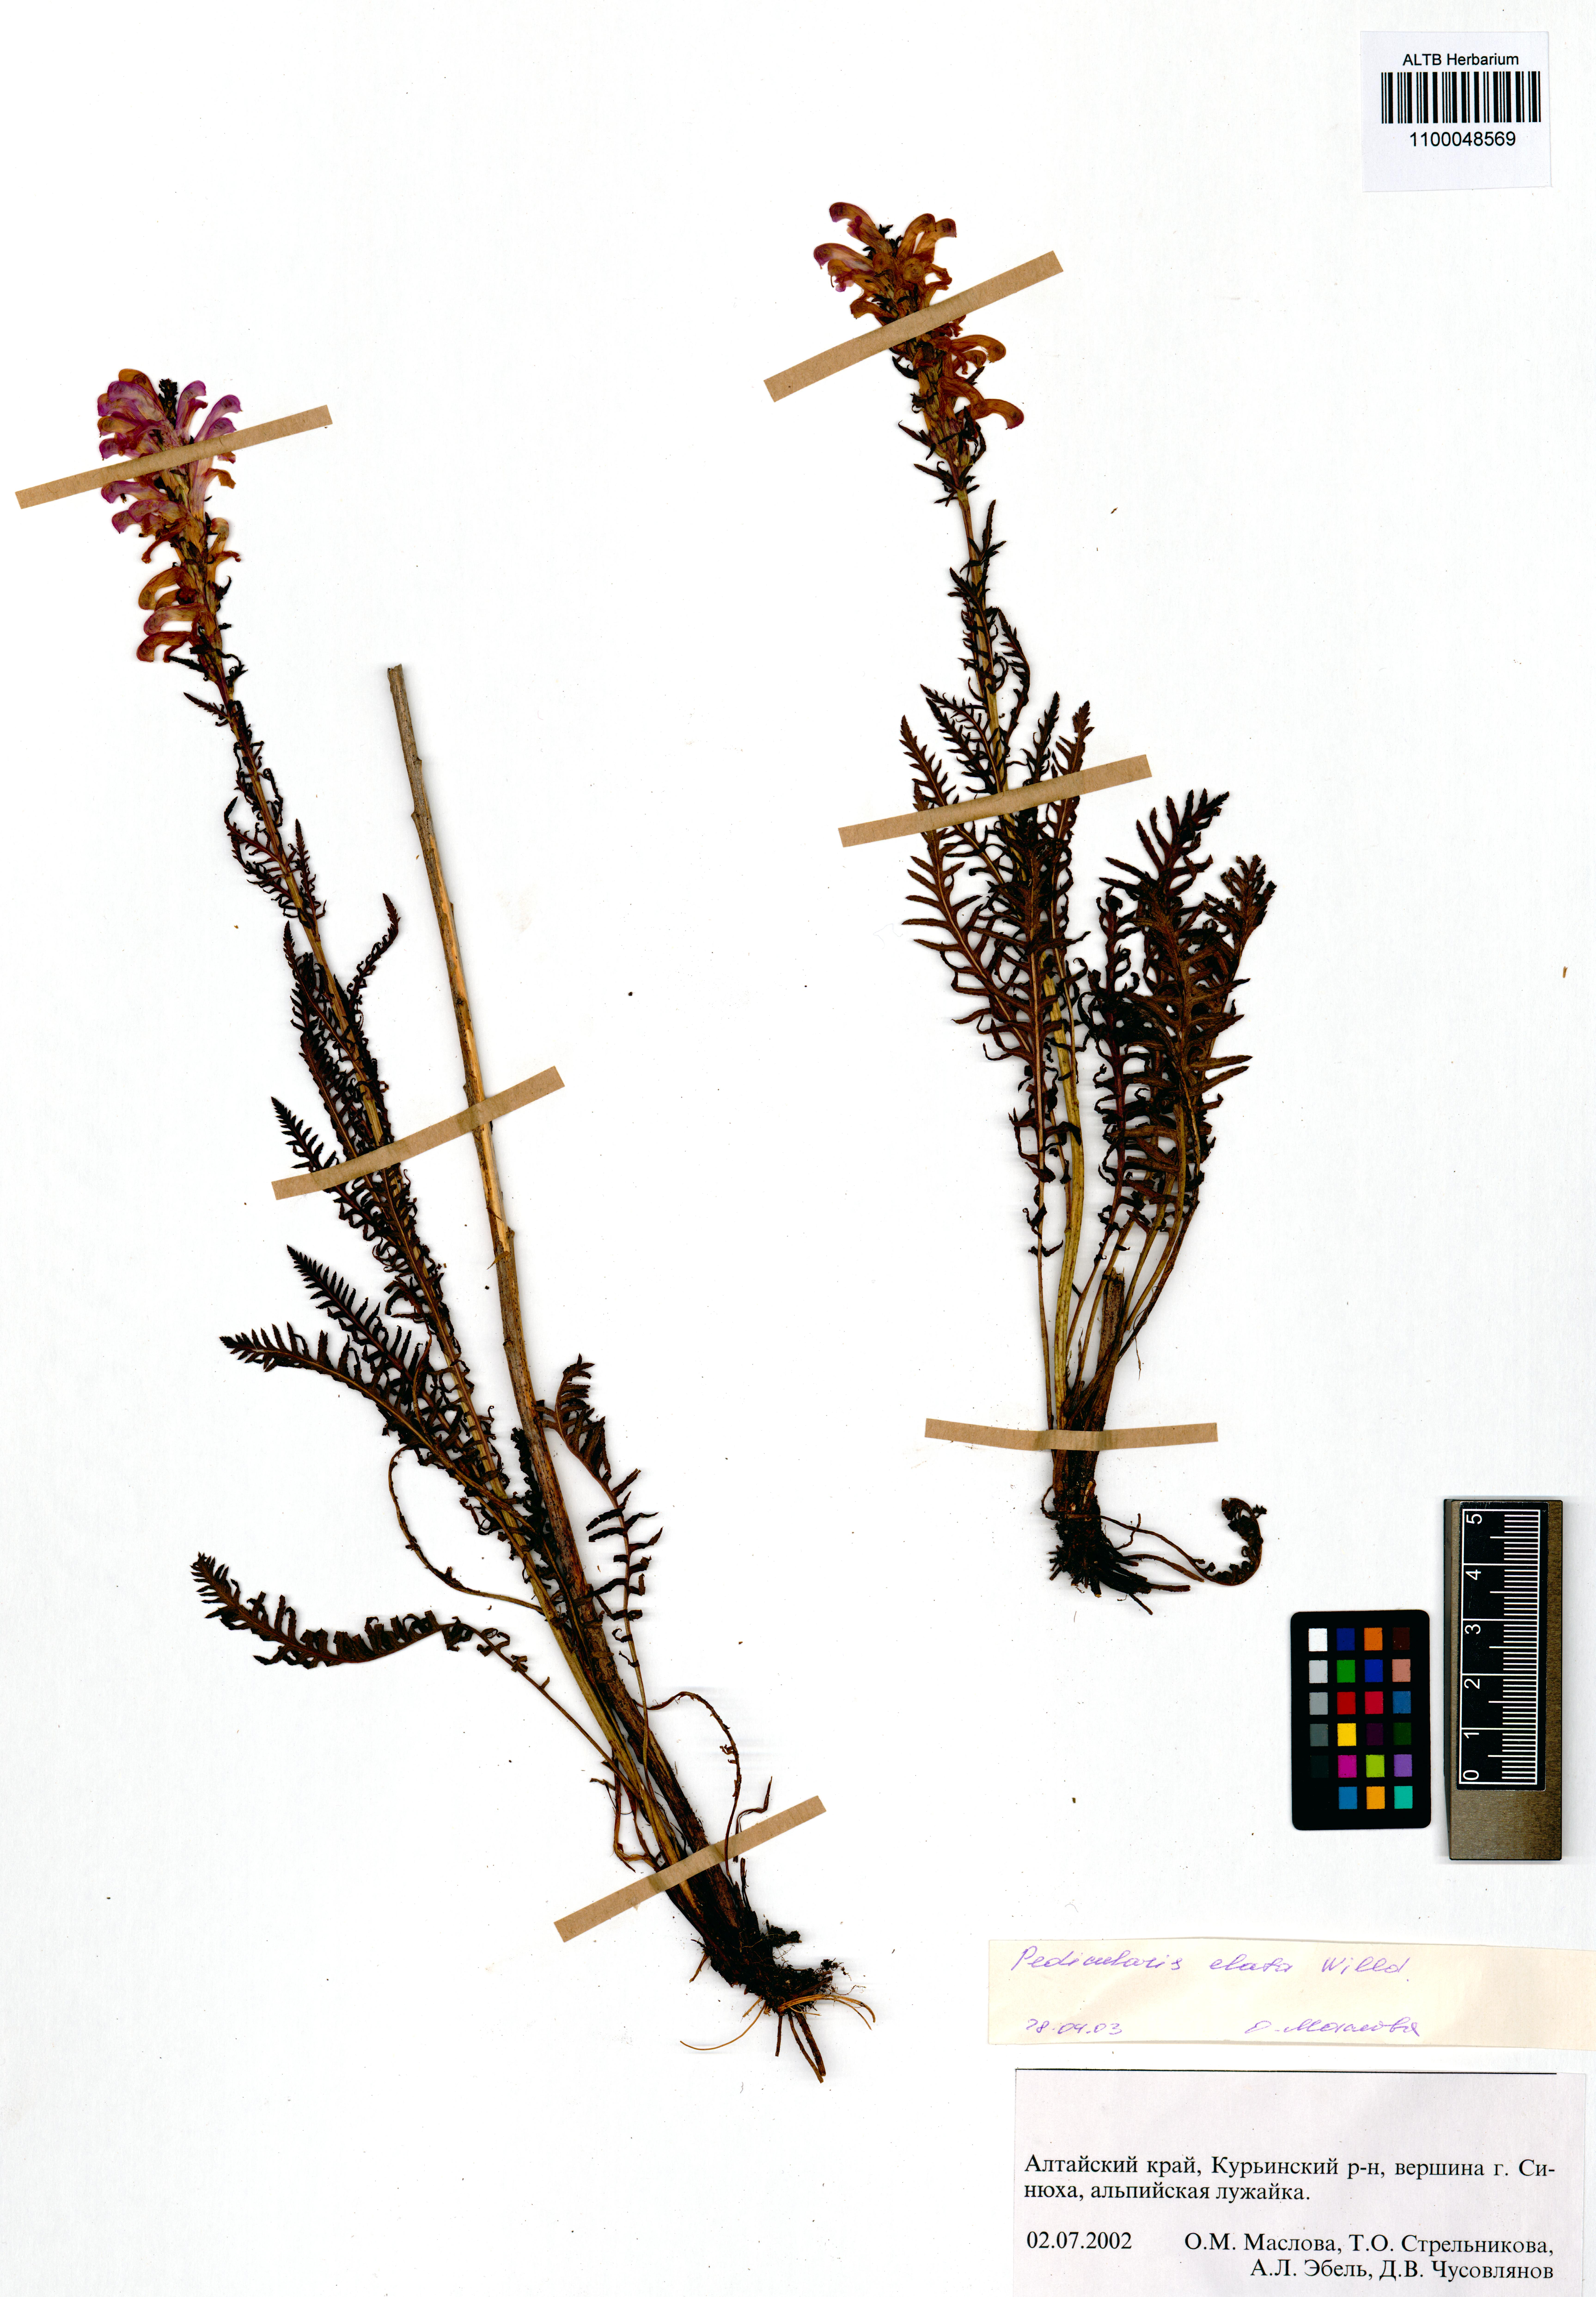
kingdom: Plantae
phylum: Tracheophyta
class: Magnoliopsida
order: Lamiales
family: Orobanchaceae
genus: Pedicularis
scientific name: Pedicularis elata
